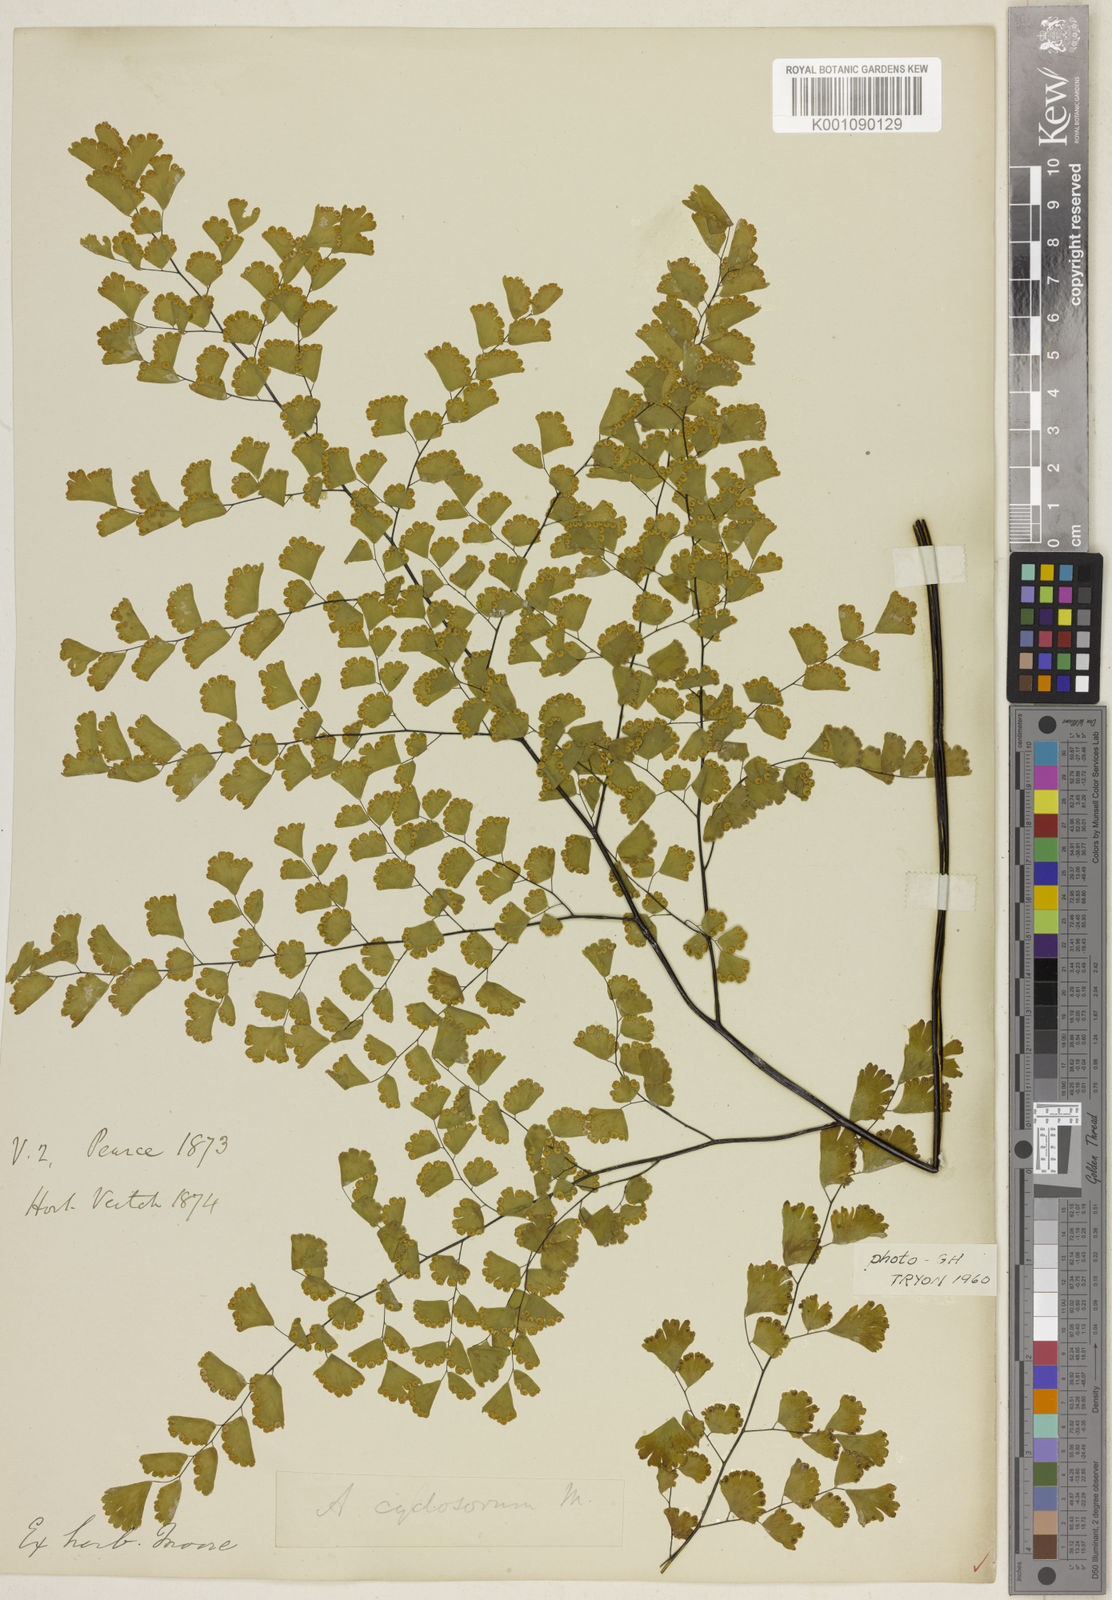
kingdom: Plantae
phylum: Tracheophyta
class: Polypodiopsida
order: Polypodiales
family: Pteridaceae
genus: Adiantum
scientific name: Adiantum raddianum
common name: Delta maidenhair fern
